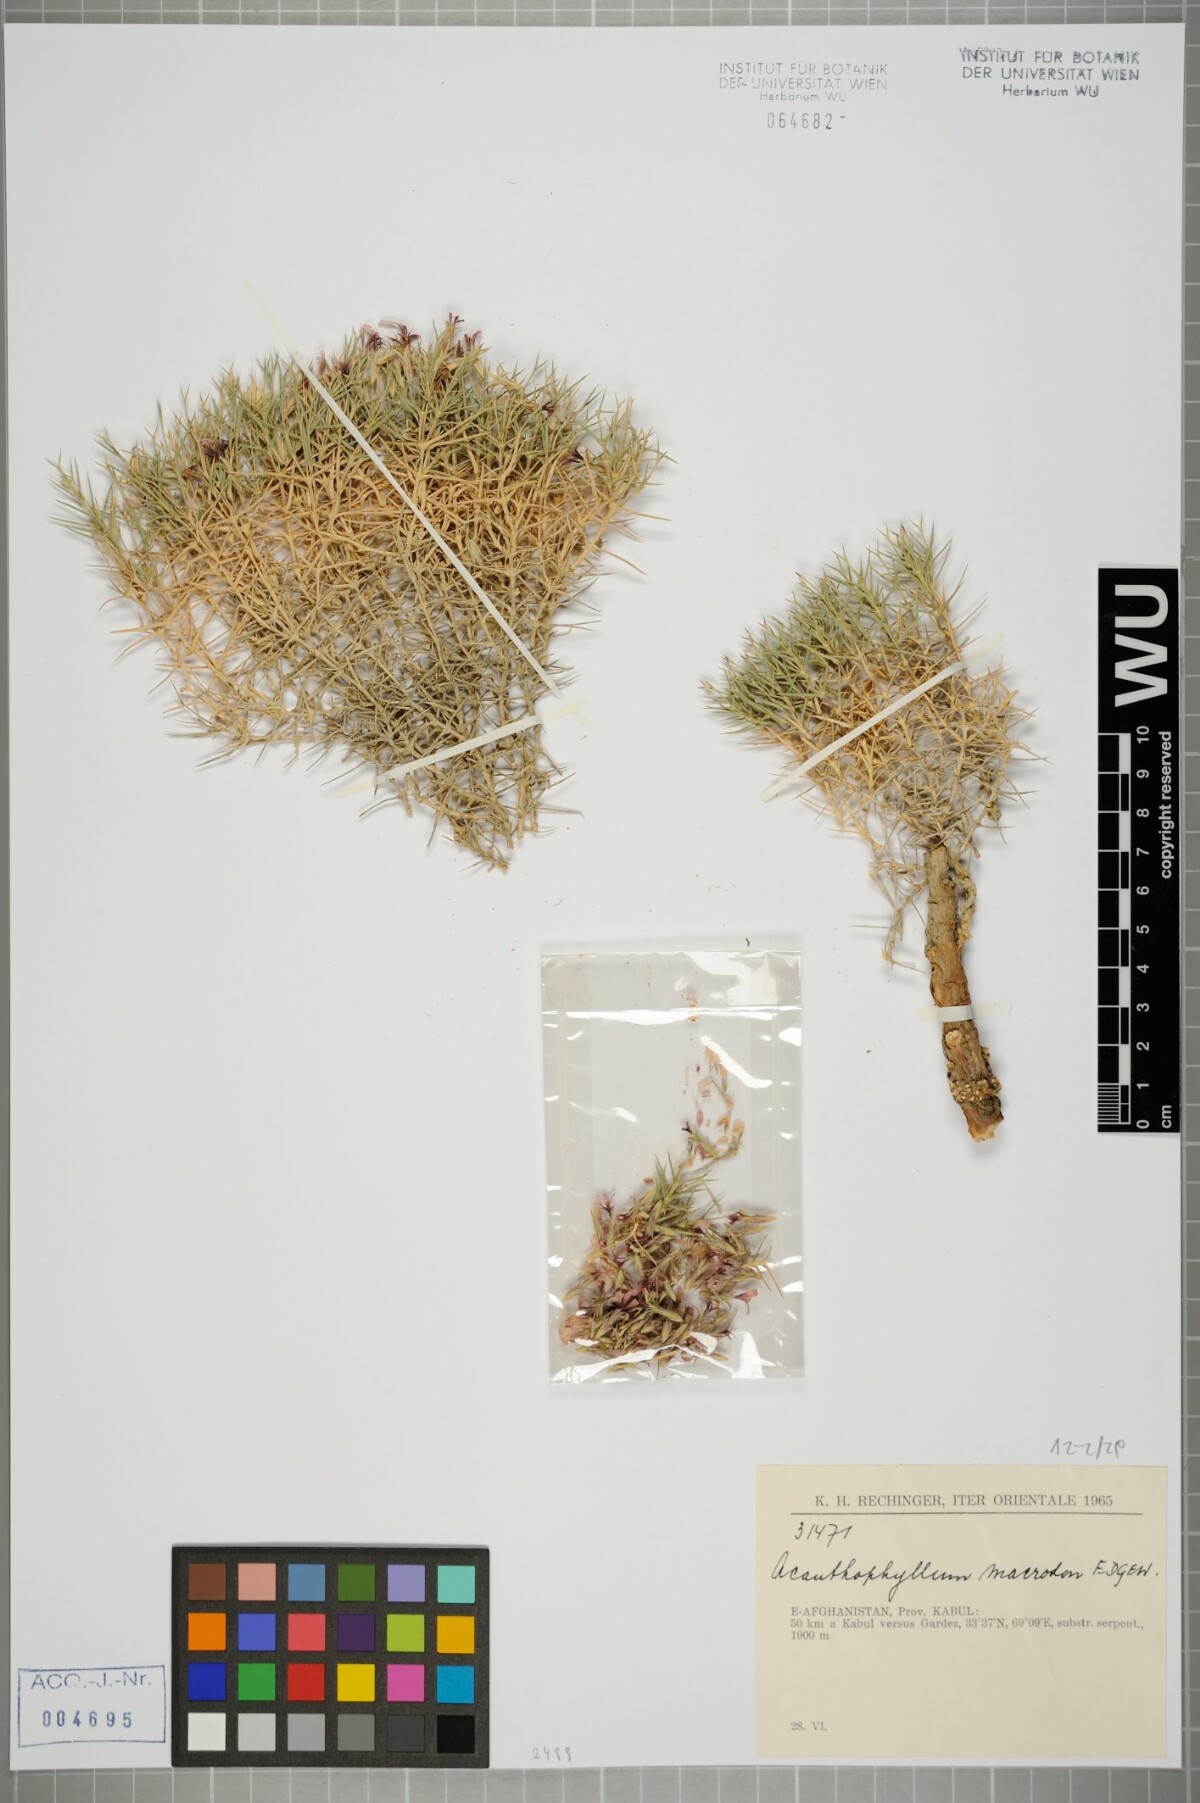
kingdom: Plantae
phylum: Tracheophyta
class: Magnoliopsida
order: Caryophyllales
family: Caryophyllaceae
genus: Acanthophyllum
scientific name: Acanthophyllum andarabicum
